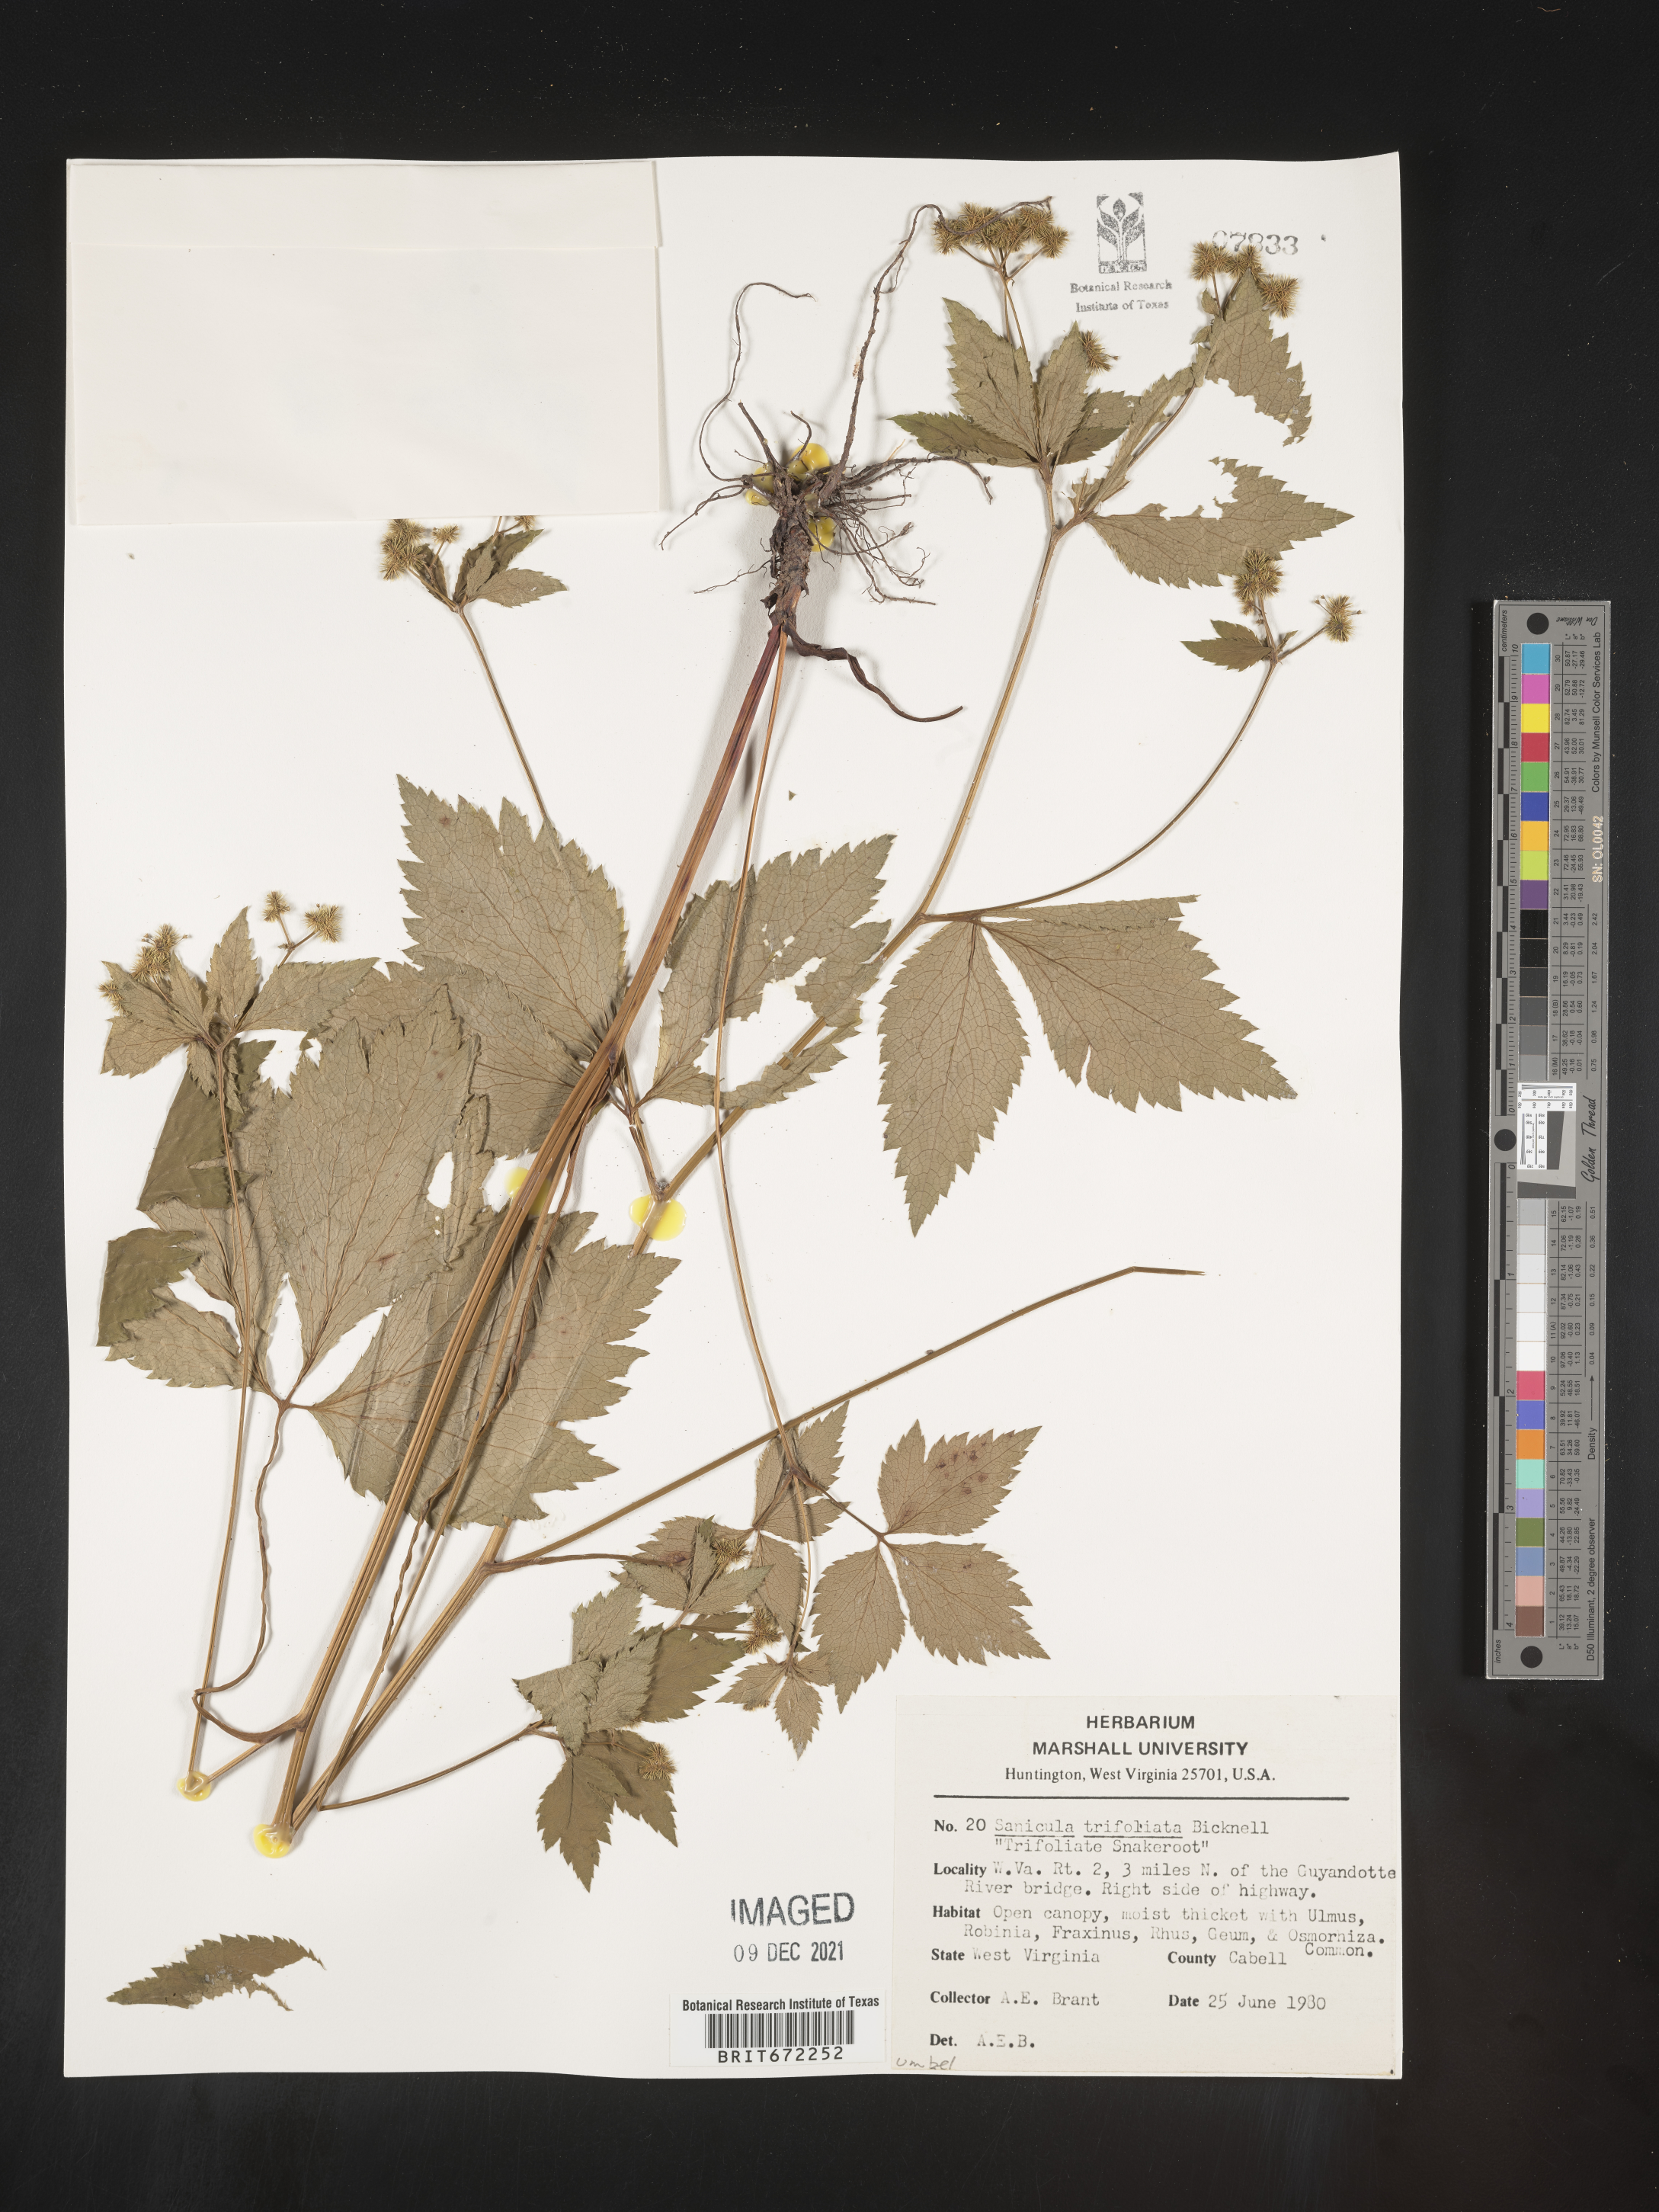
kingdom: Plantae
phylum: Tracheophyta
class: Magnoliopsida
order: Apiales
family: Apiaceae
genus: Sanicula
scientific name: Sanicula
